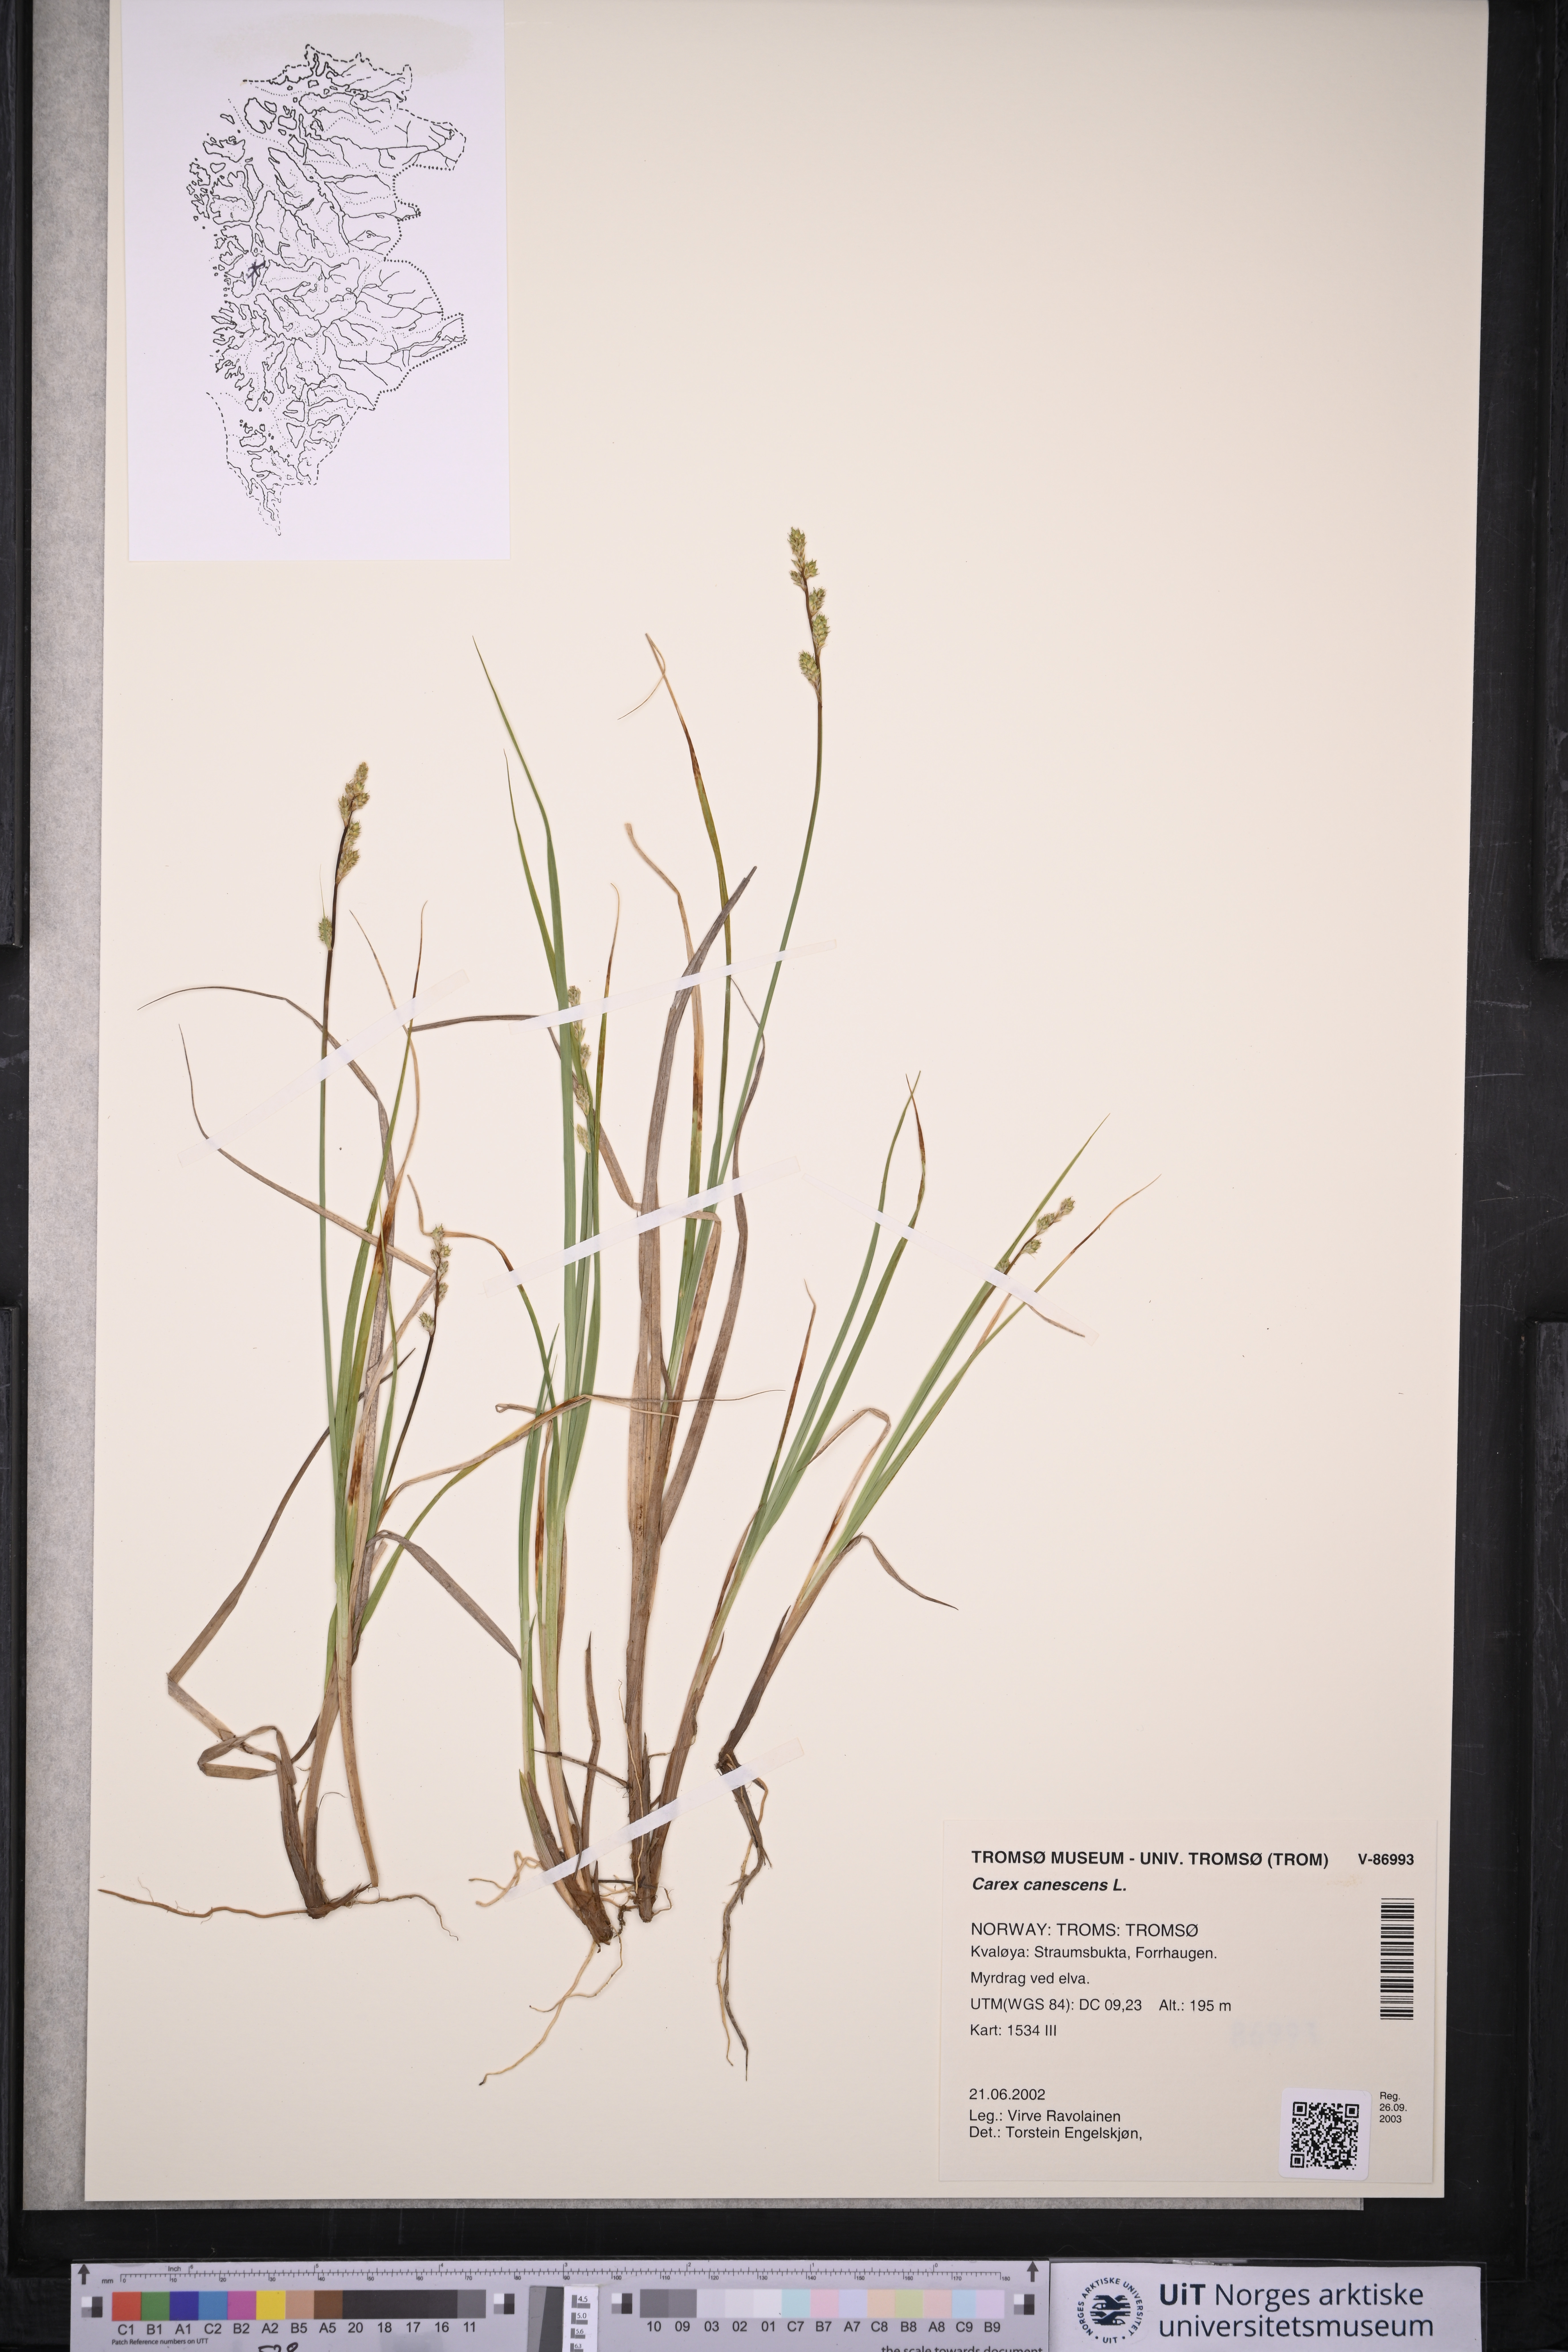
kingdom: Plantae
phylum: Tracheophyta
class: Liliopsida
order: Poales
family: Cyperaceae
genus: Carex
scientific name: Carex canescens
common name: White sedge
